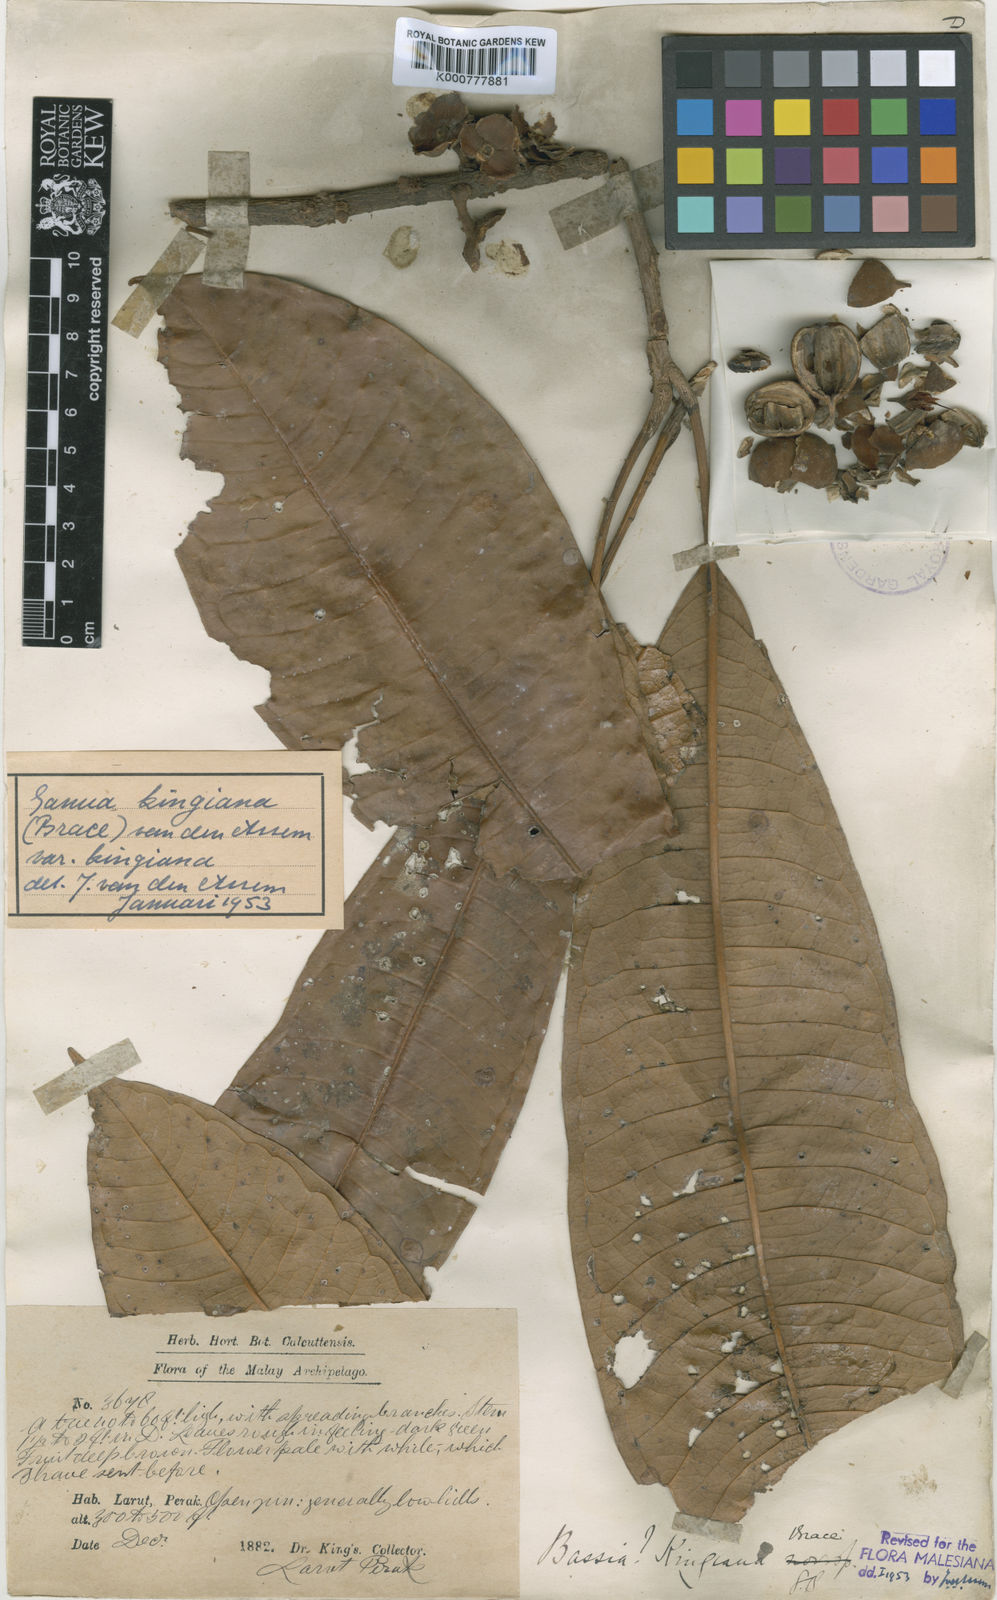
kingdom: Plantae
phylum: Tracheophyta
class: Magnoliopsida
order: Ericales
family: Sapotaceae
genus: Madhuca
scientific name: Madhuca kingiana
